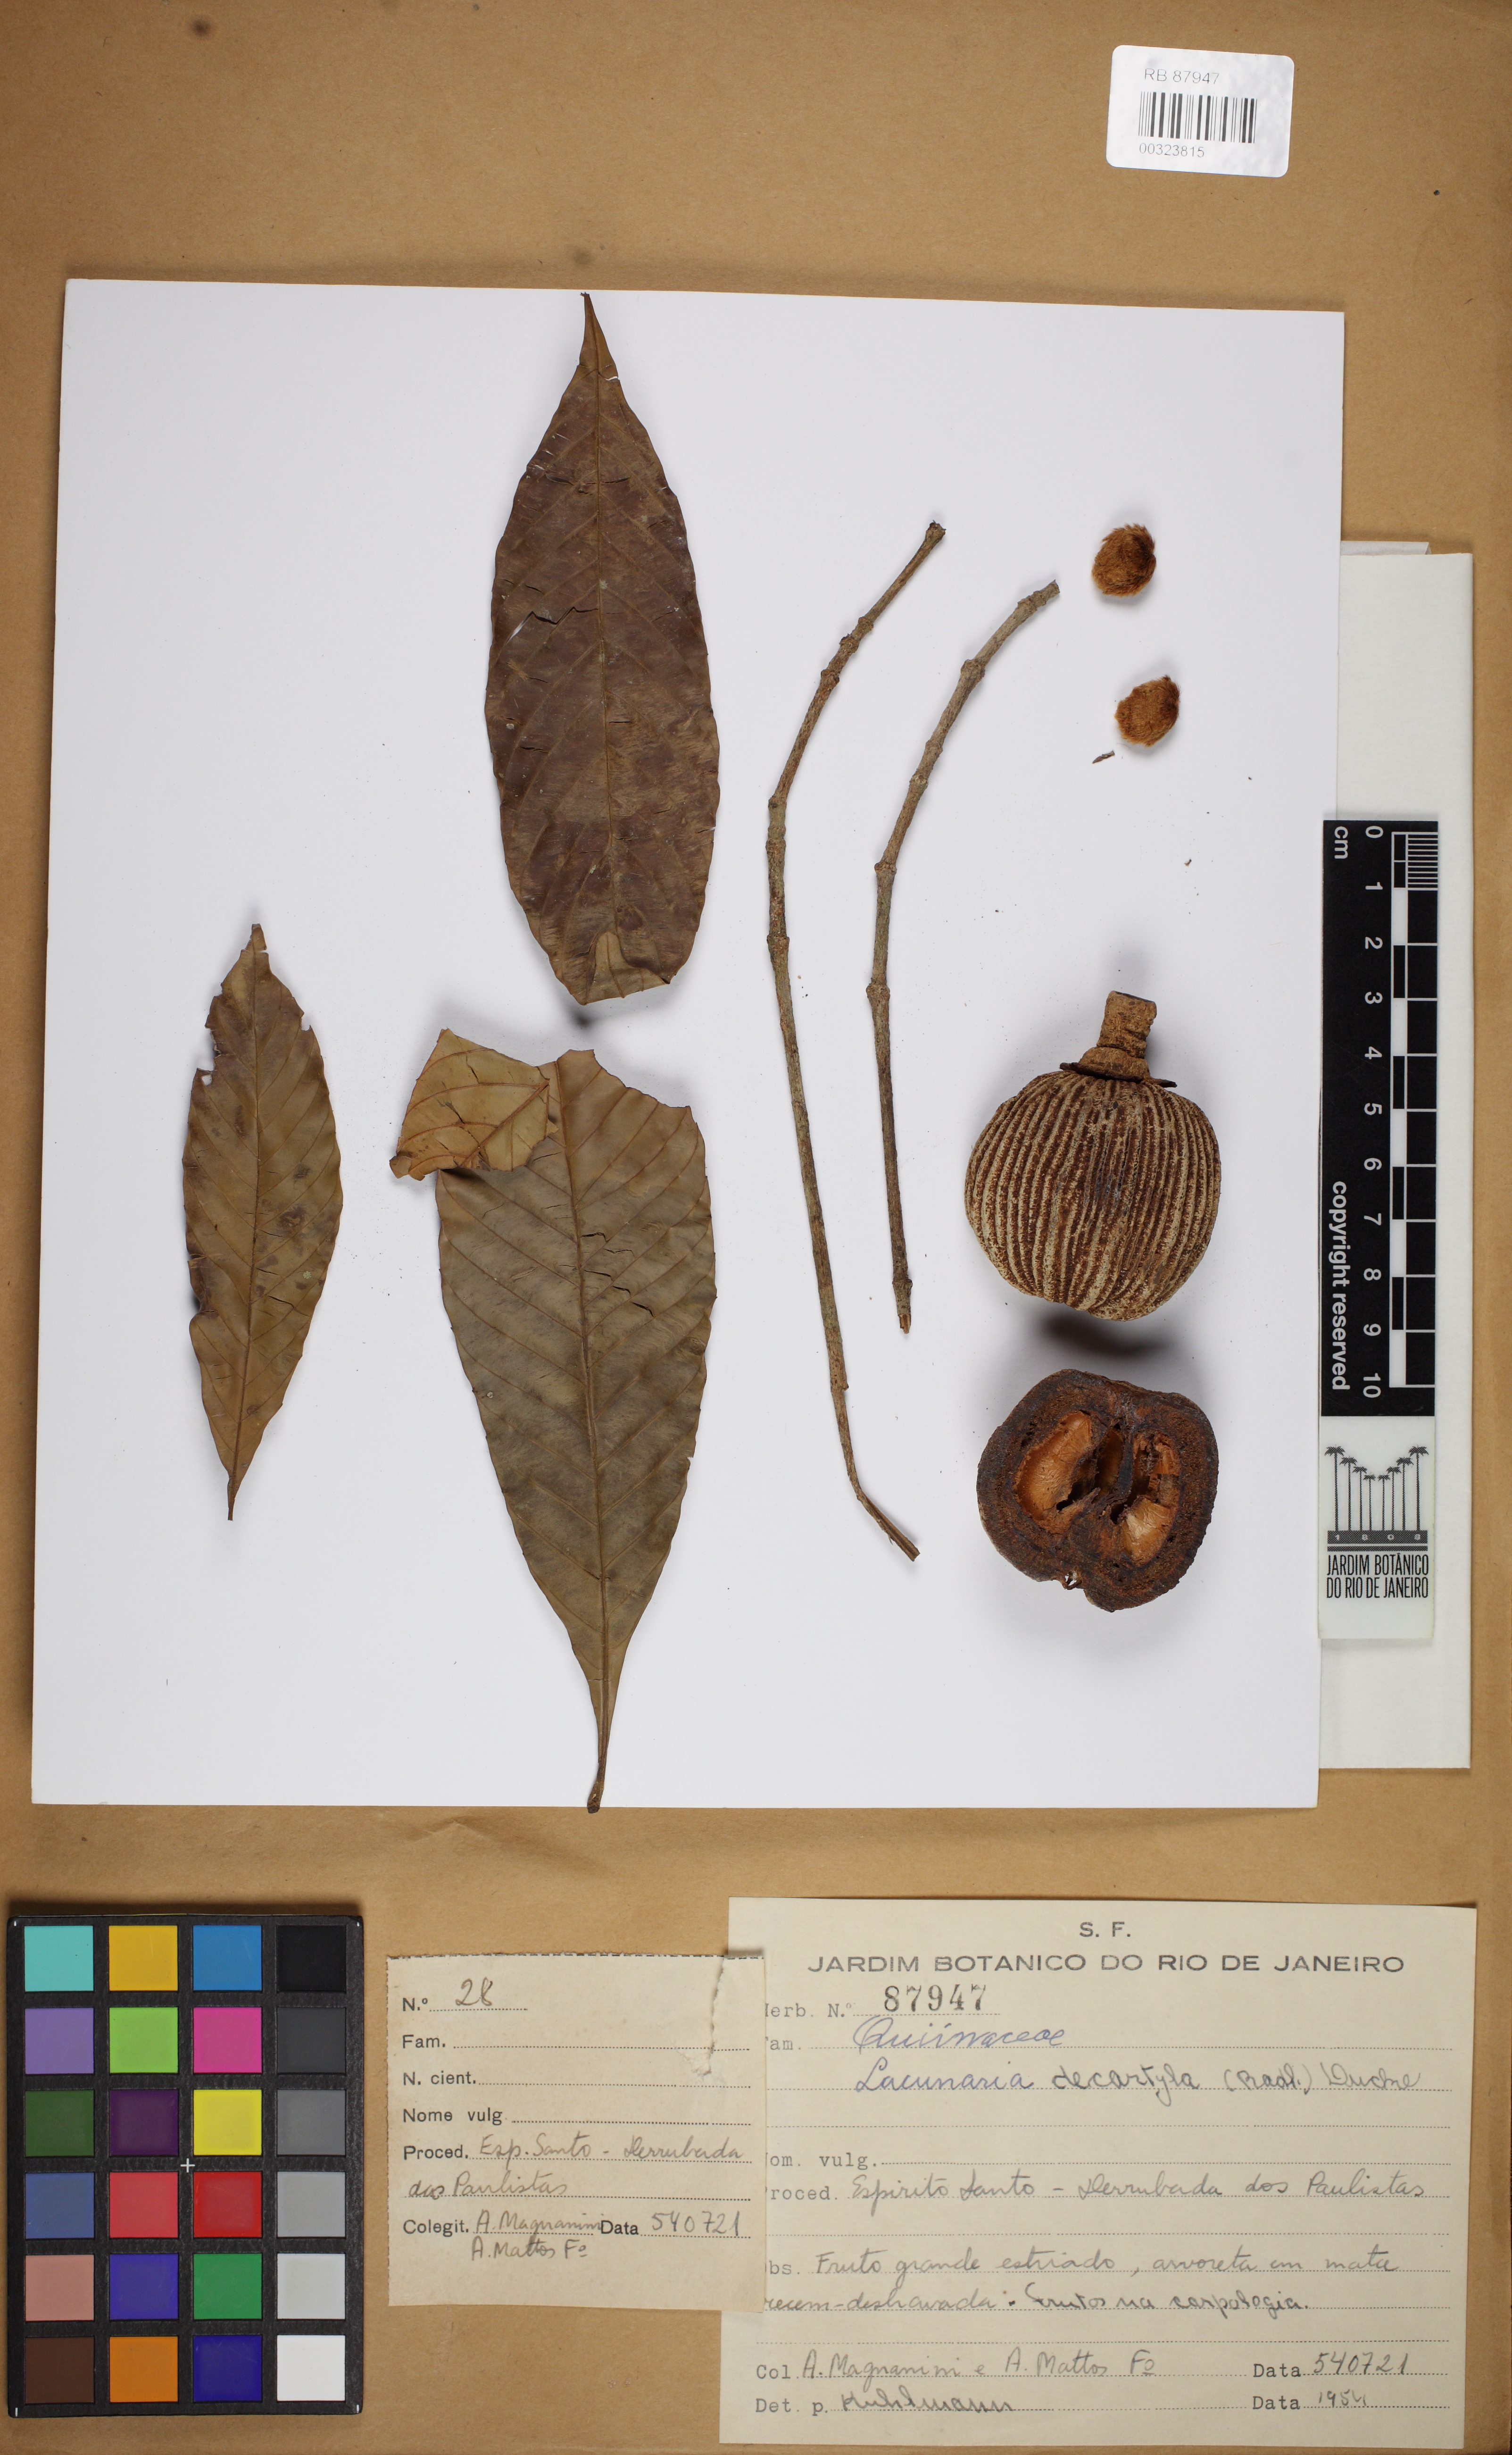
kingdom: Plantae
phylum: Tracheophyta
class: Magnoliopsida
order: Malpighiales
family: Quiinaceae
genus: Lacunaria
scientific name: Lacunaria crenata
